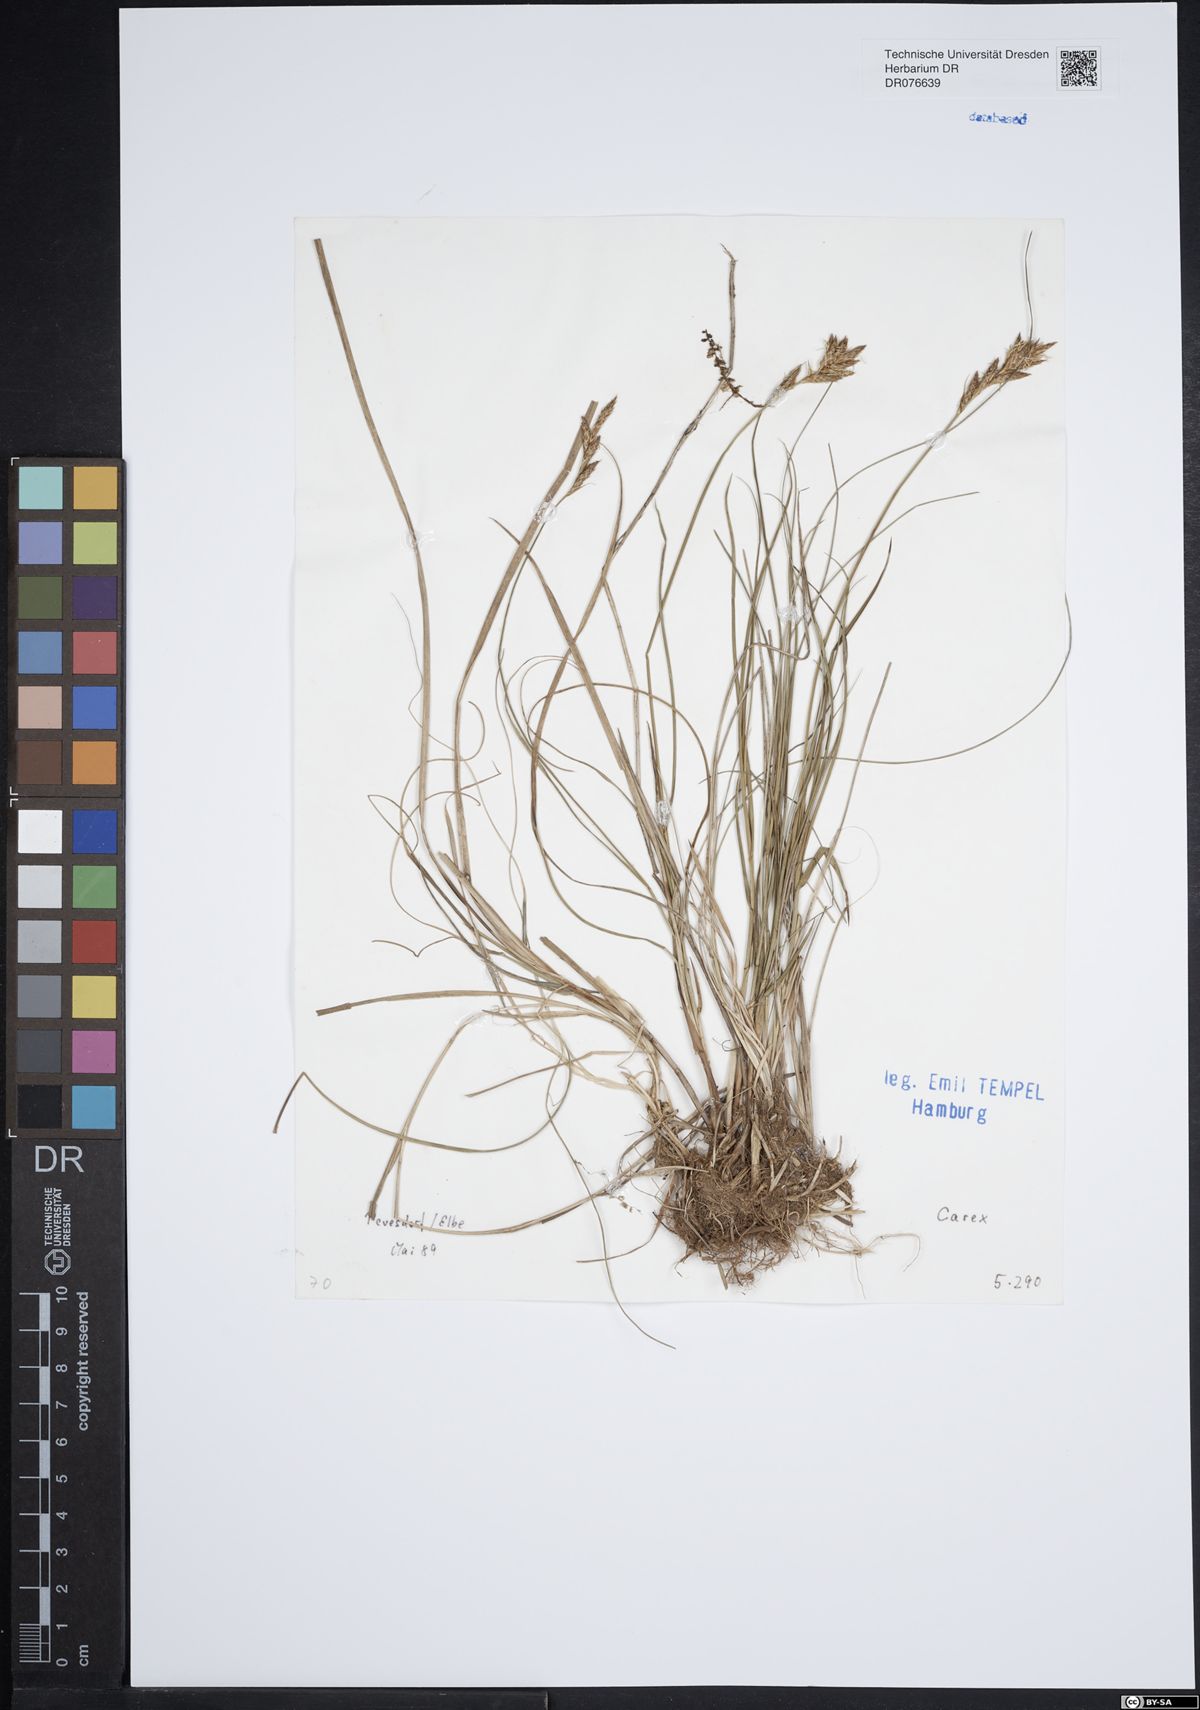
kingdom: Plantae
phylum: Tracheophyta
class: Liliopsida
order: Poales
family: Cyperaceae
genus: Carex
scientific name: Carex
